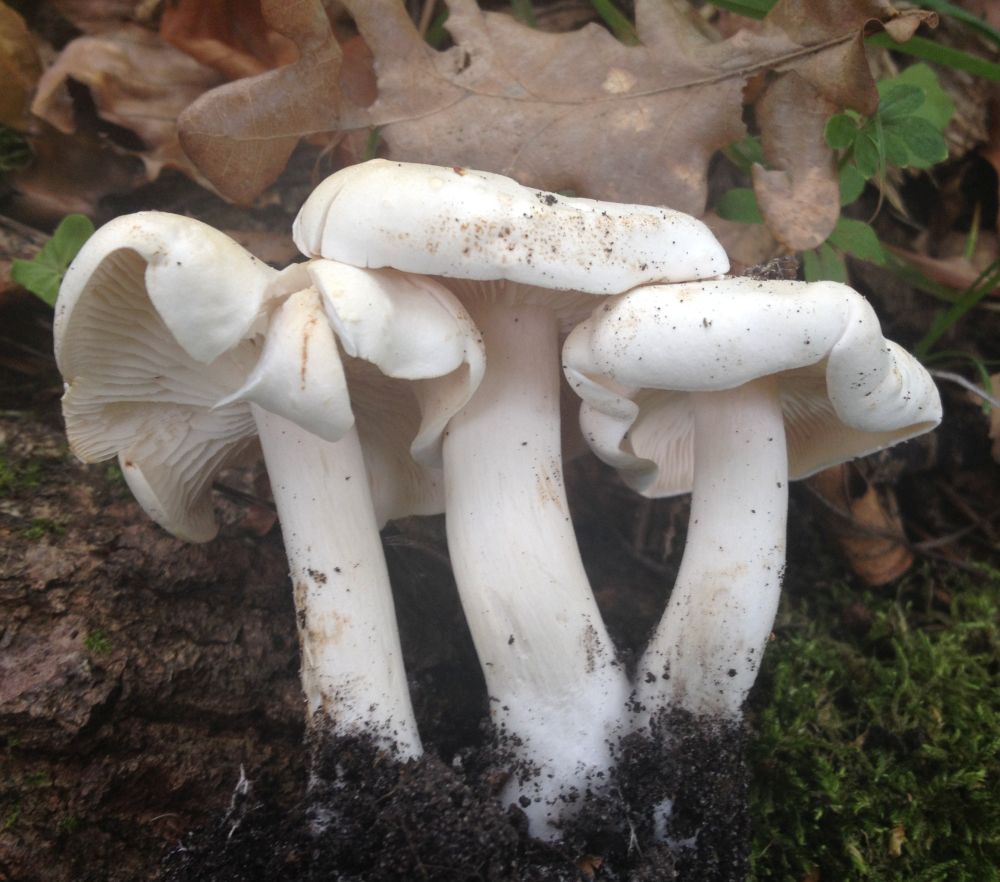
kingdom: Fungi
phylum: Basidiomycota
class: Agaricomycetes
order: Agaricales
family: Tricholomataceae
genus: Tricholoma
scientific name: Tricholoma album
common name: honning-ridderhat
